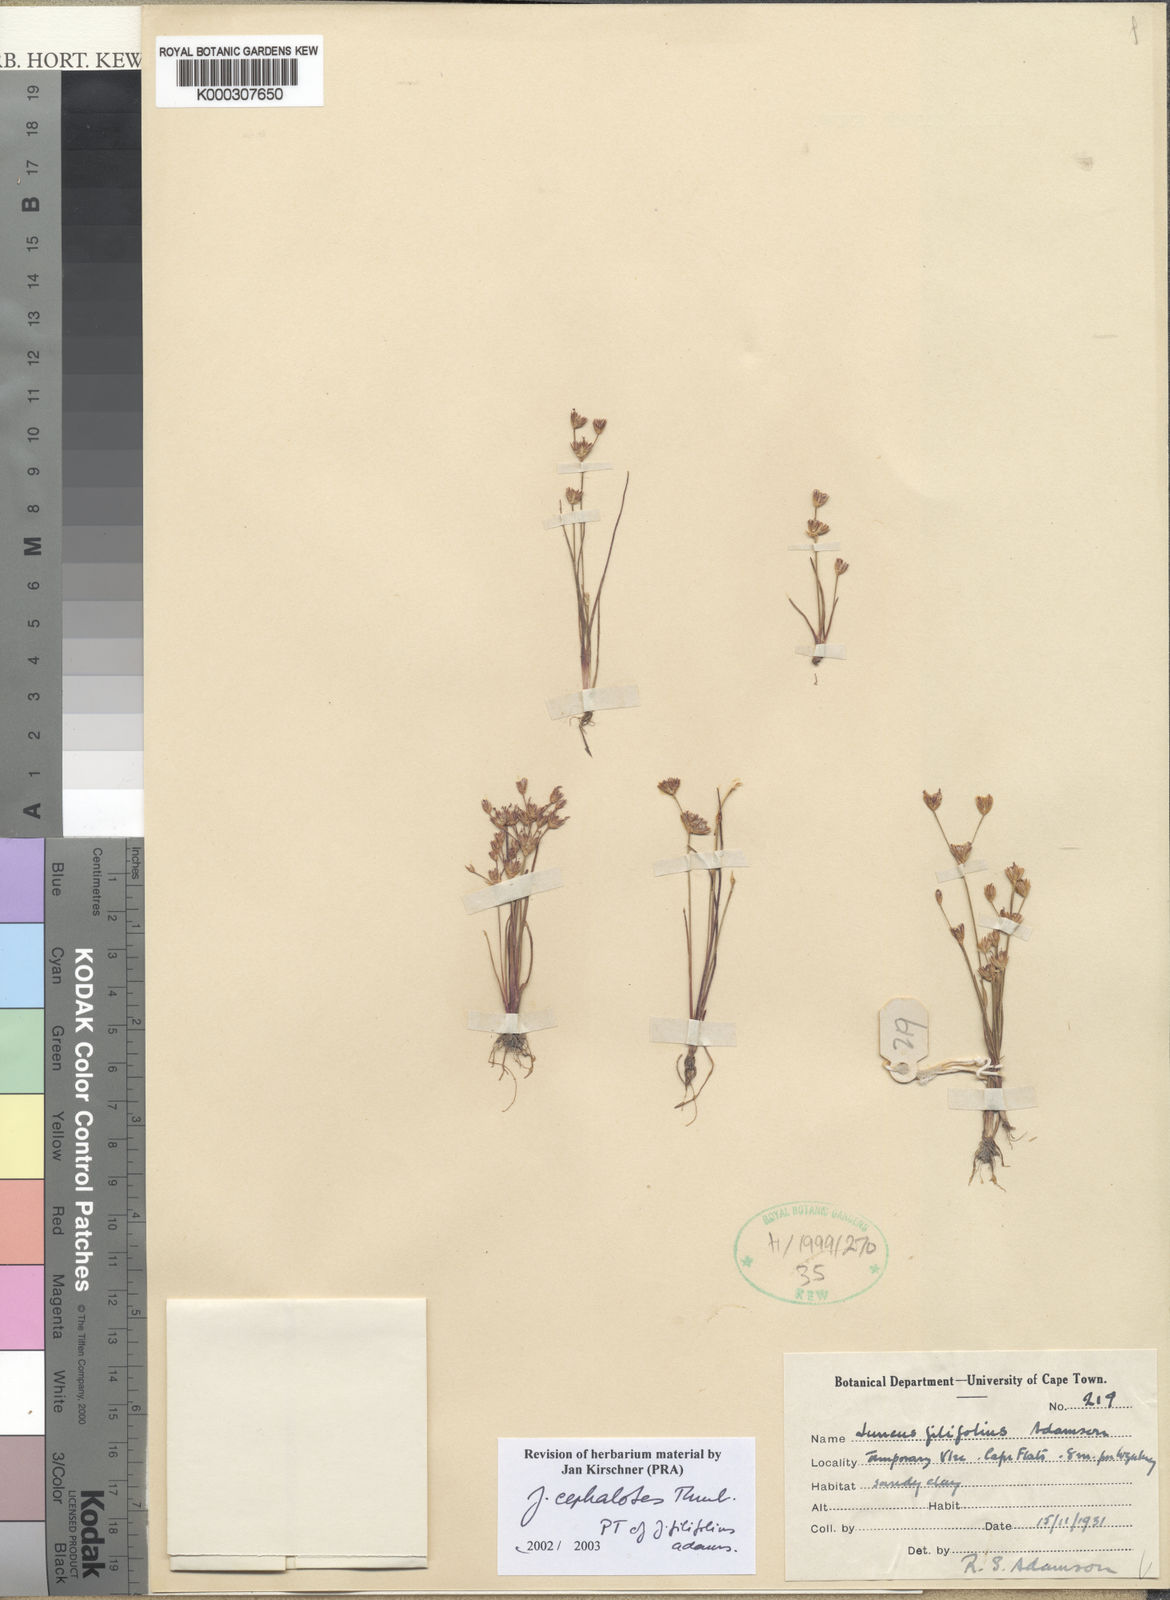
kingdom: Plantae
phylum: Tracheophyta
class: Liliopsida
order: Poales
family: Juncaceae
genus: Juncus
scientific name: Juncus cephalotes
